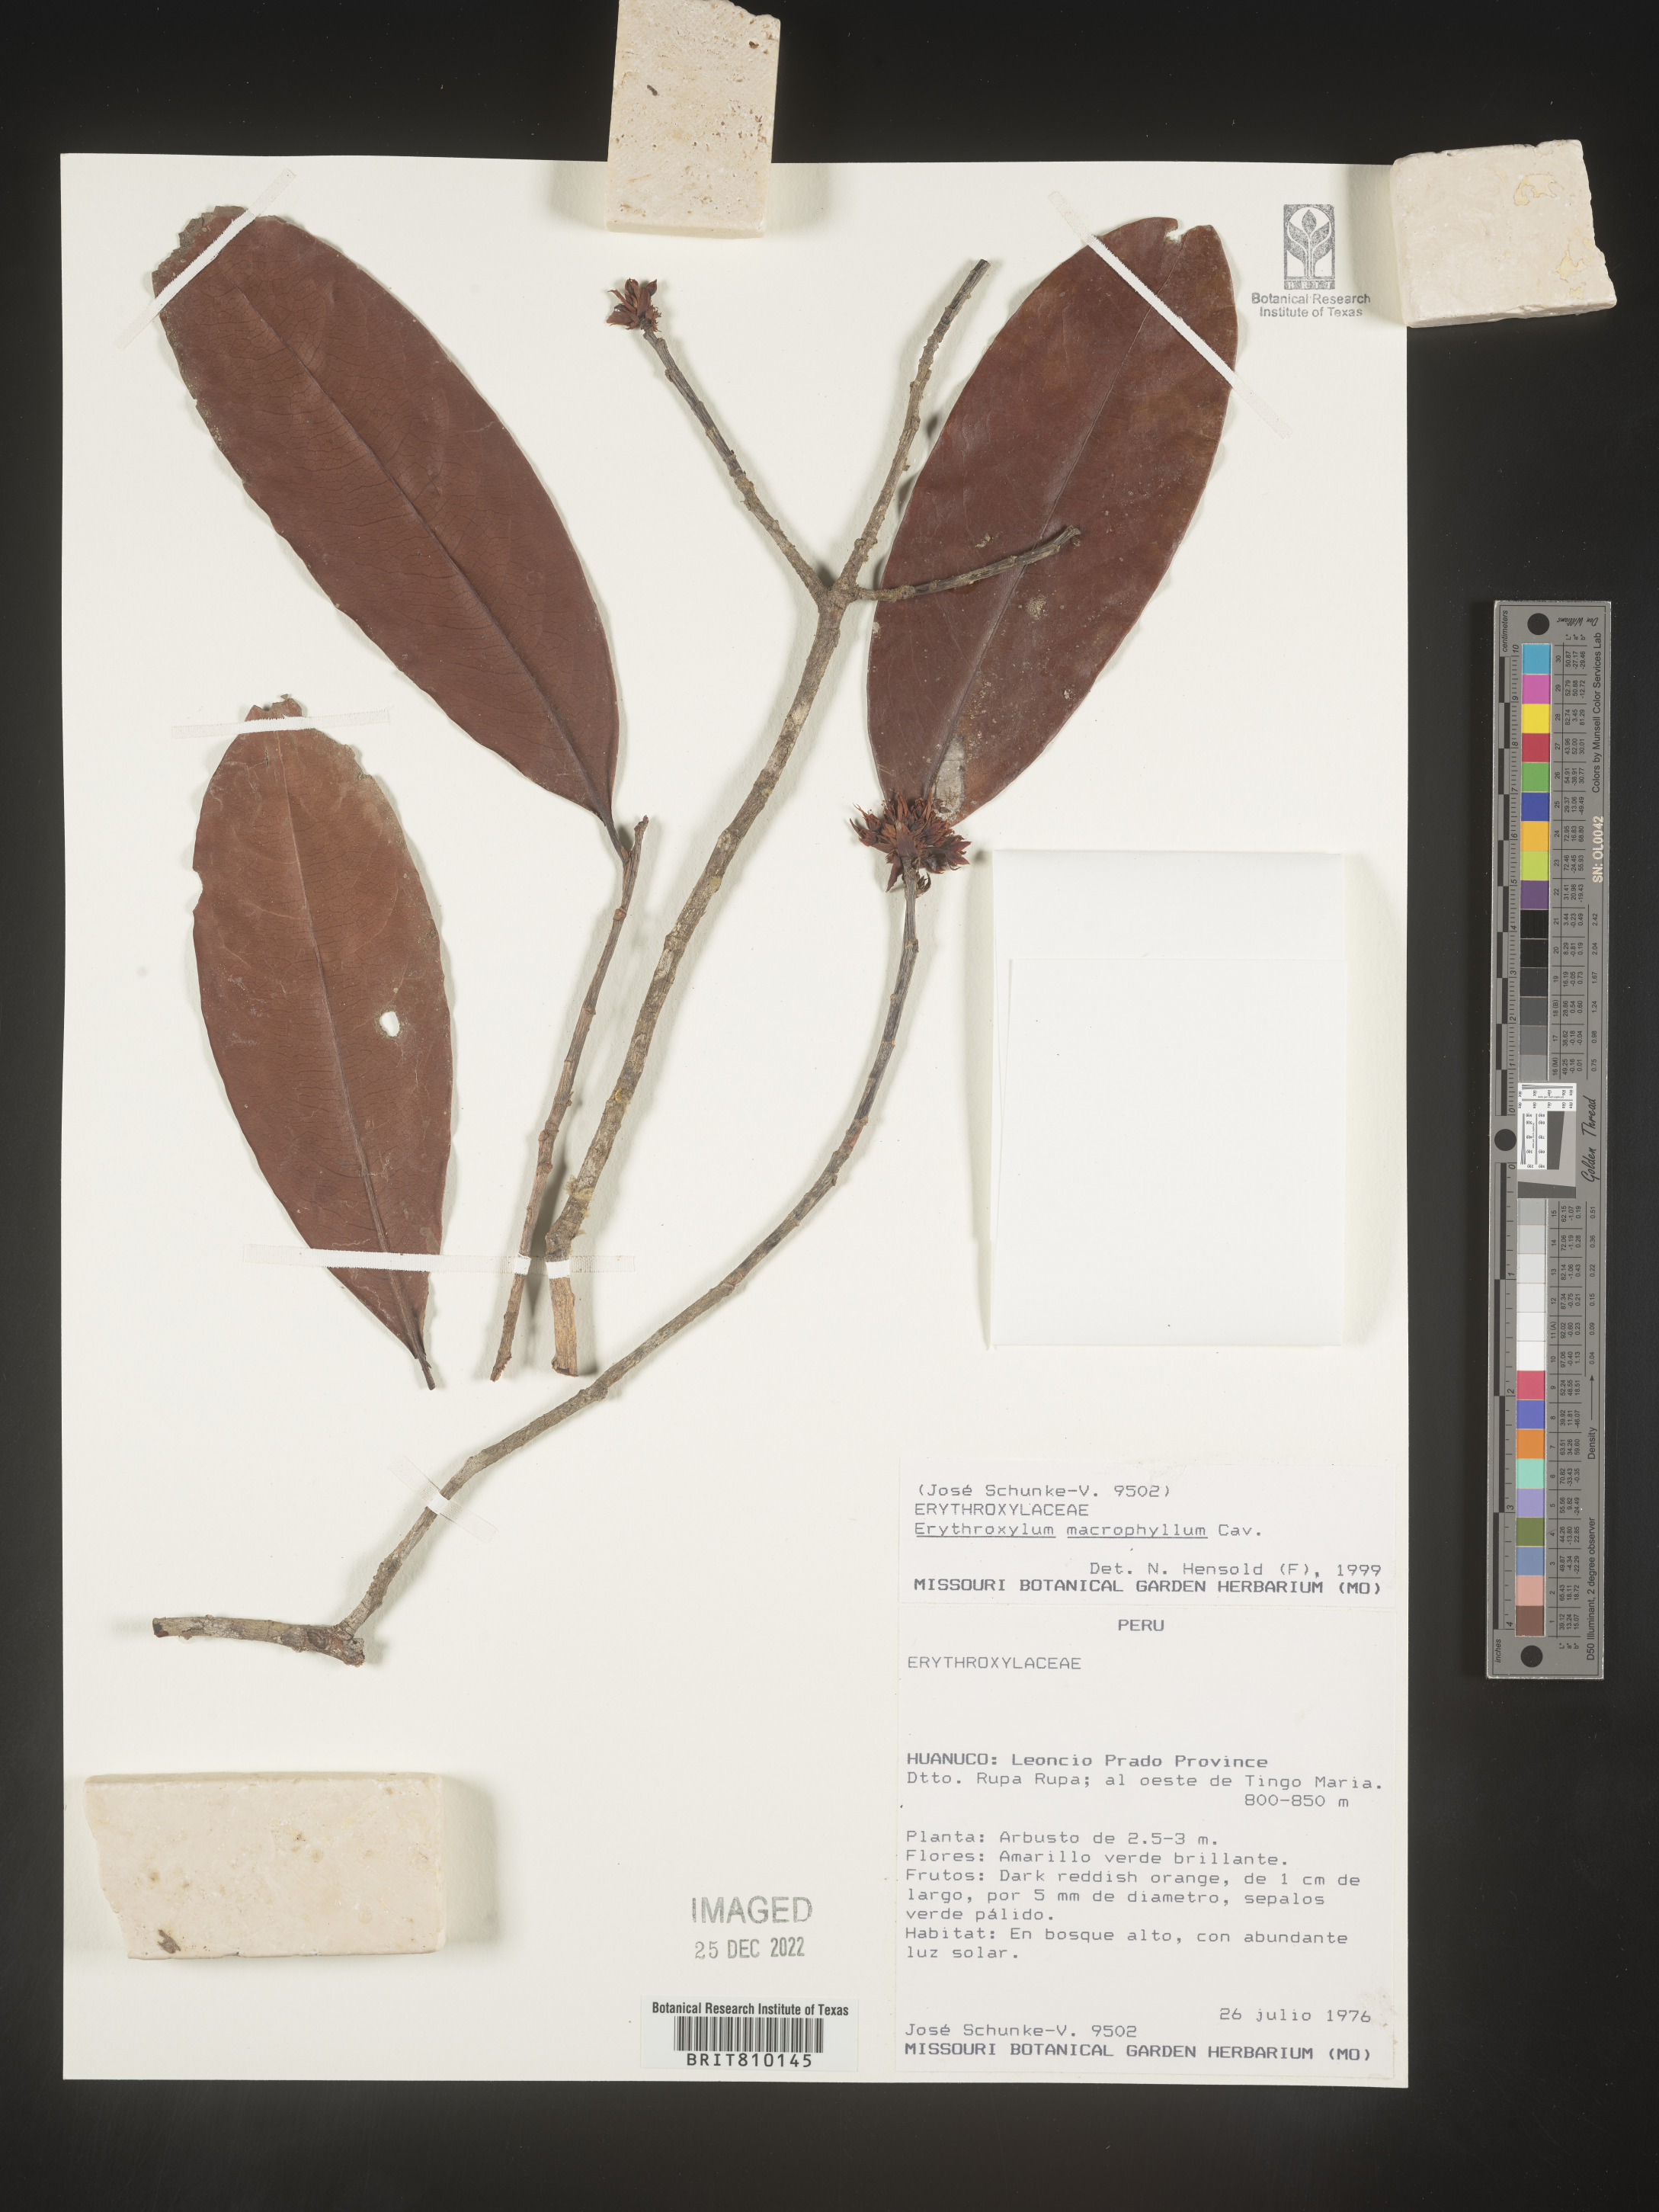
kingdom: Plantae
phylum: Tracheophyta
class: Magnoliopsida
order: Malpighiales
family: Erythroxylaceae
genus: Erythroxylum
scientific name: Erythroxylum
